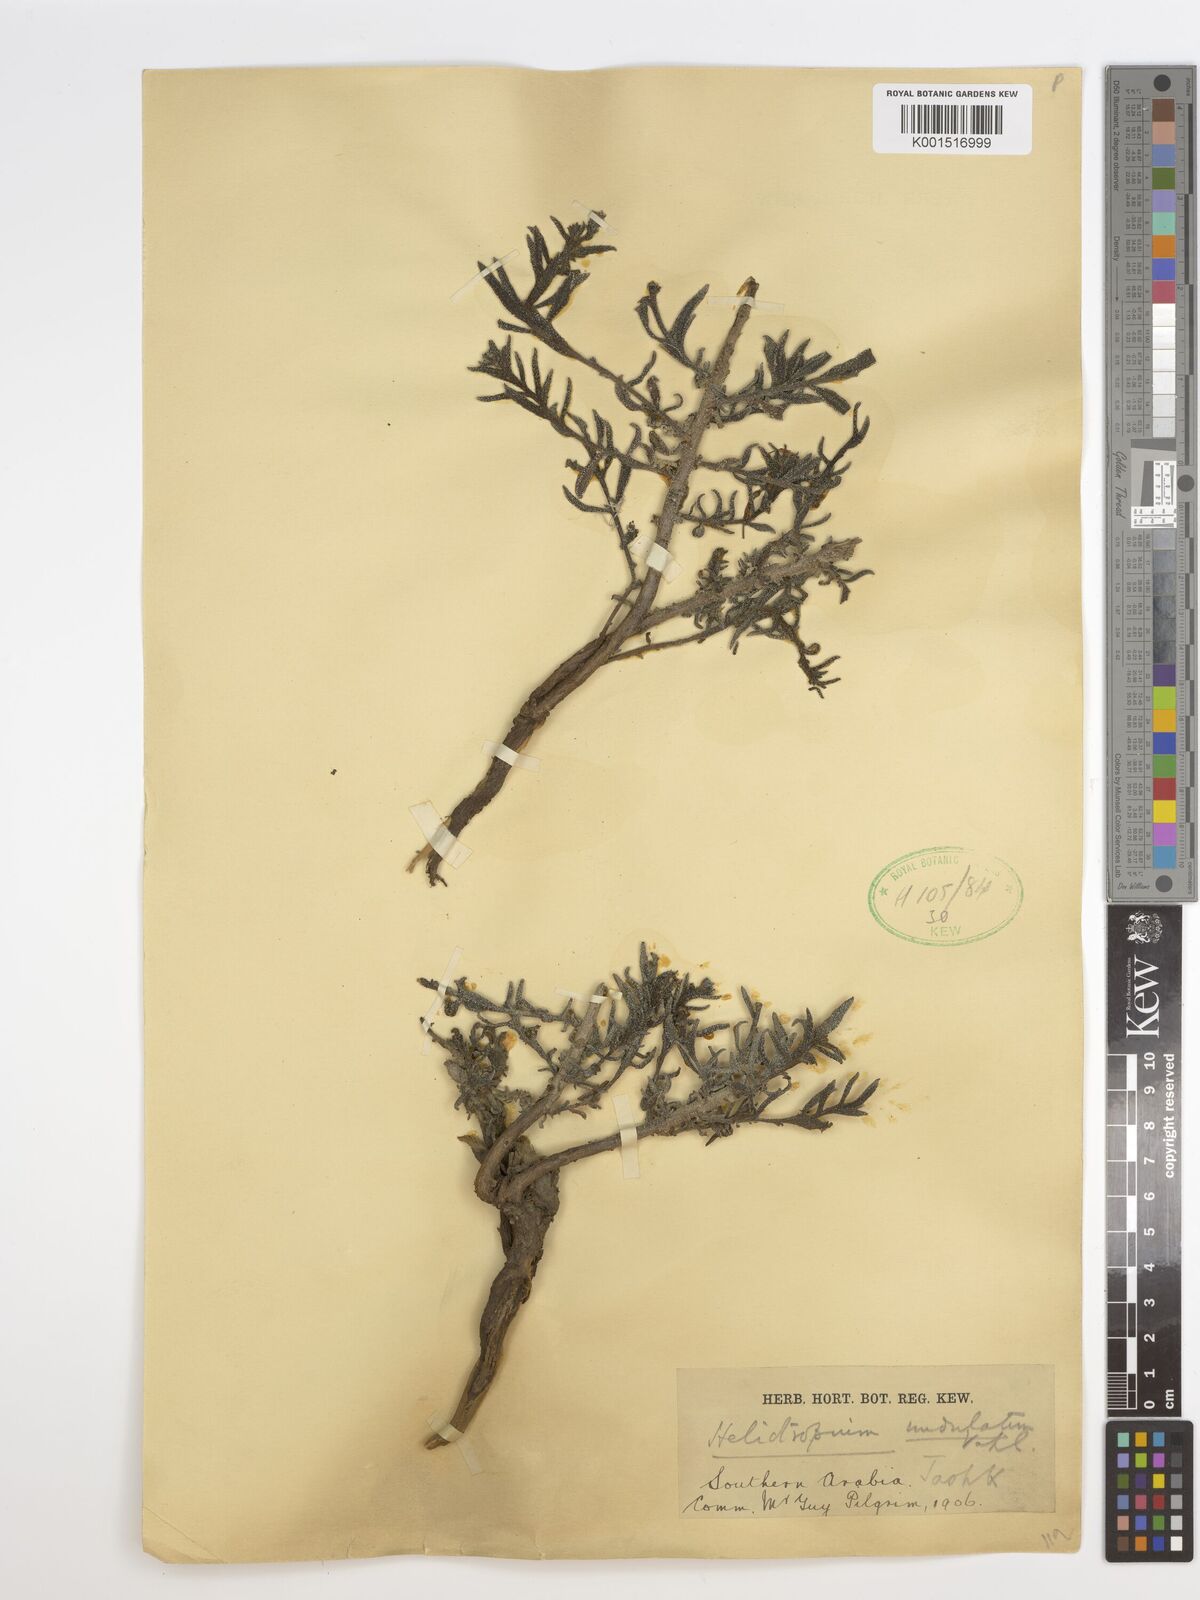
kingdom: Plantae
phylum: Tracheophyta
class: Magnoliopsida
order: Boraginales
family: Heliotropiaceae
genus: Heliotropium
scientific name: Heliotropium rotundifolium
